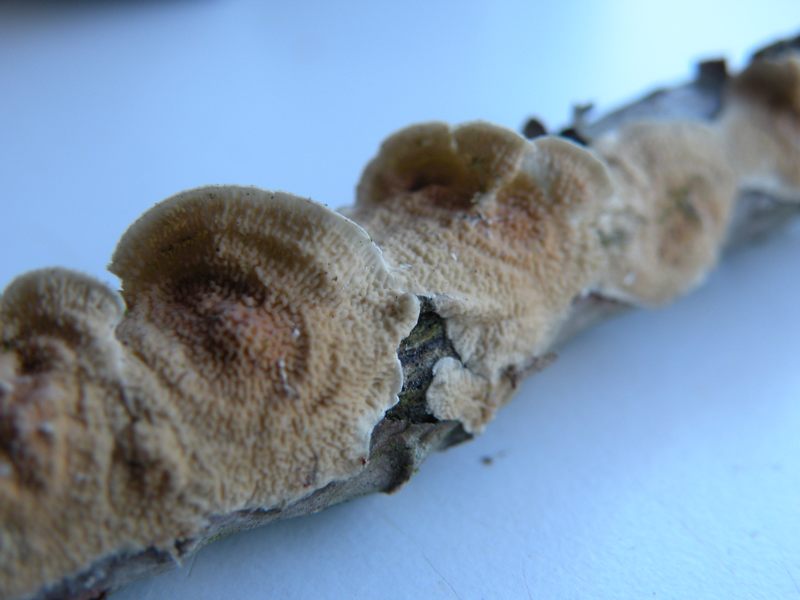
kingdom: Fungi
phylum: Basidiomycota
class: Agaricomycetes
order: Polyporales
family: Irpicaceae
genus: Byssomerulius
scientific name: Byssomerulius corium
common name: læder-åresvamp
